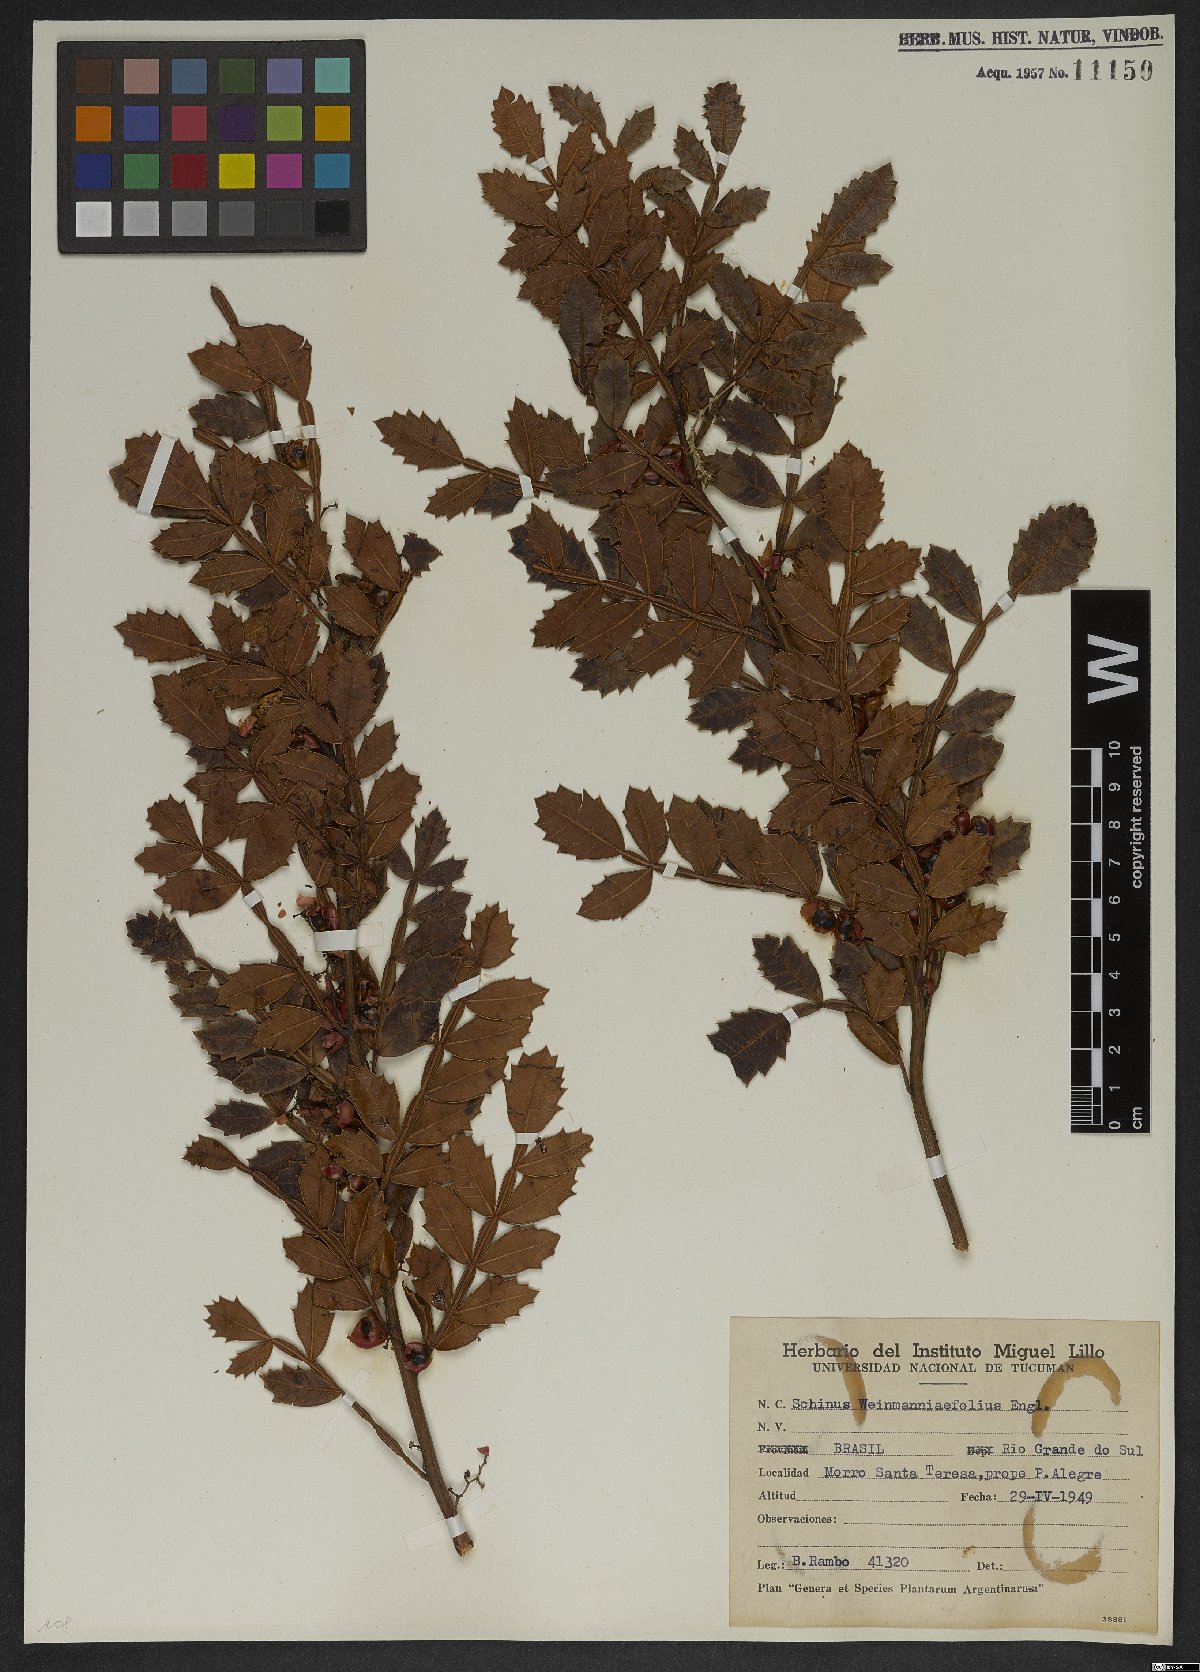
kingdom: Plantae
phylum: Tracheophyta
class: Magnoliopsida
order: Sapindales
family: Anacardiaceae
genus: Schinus
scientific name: Schinus weinmanniifolia
